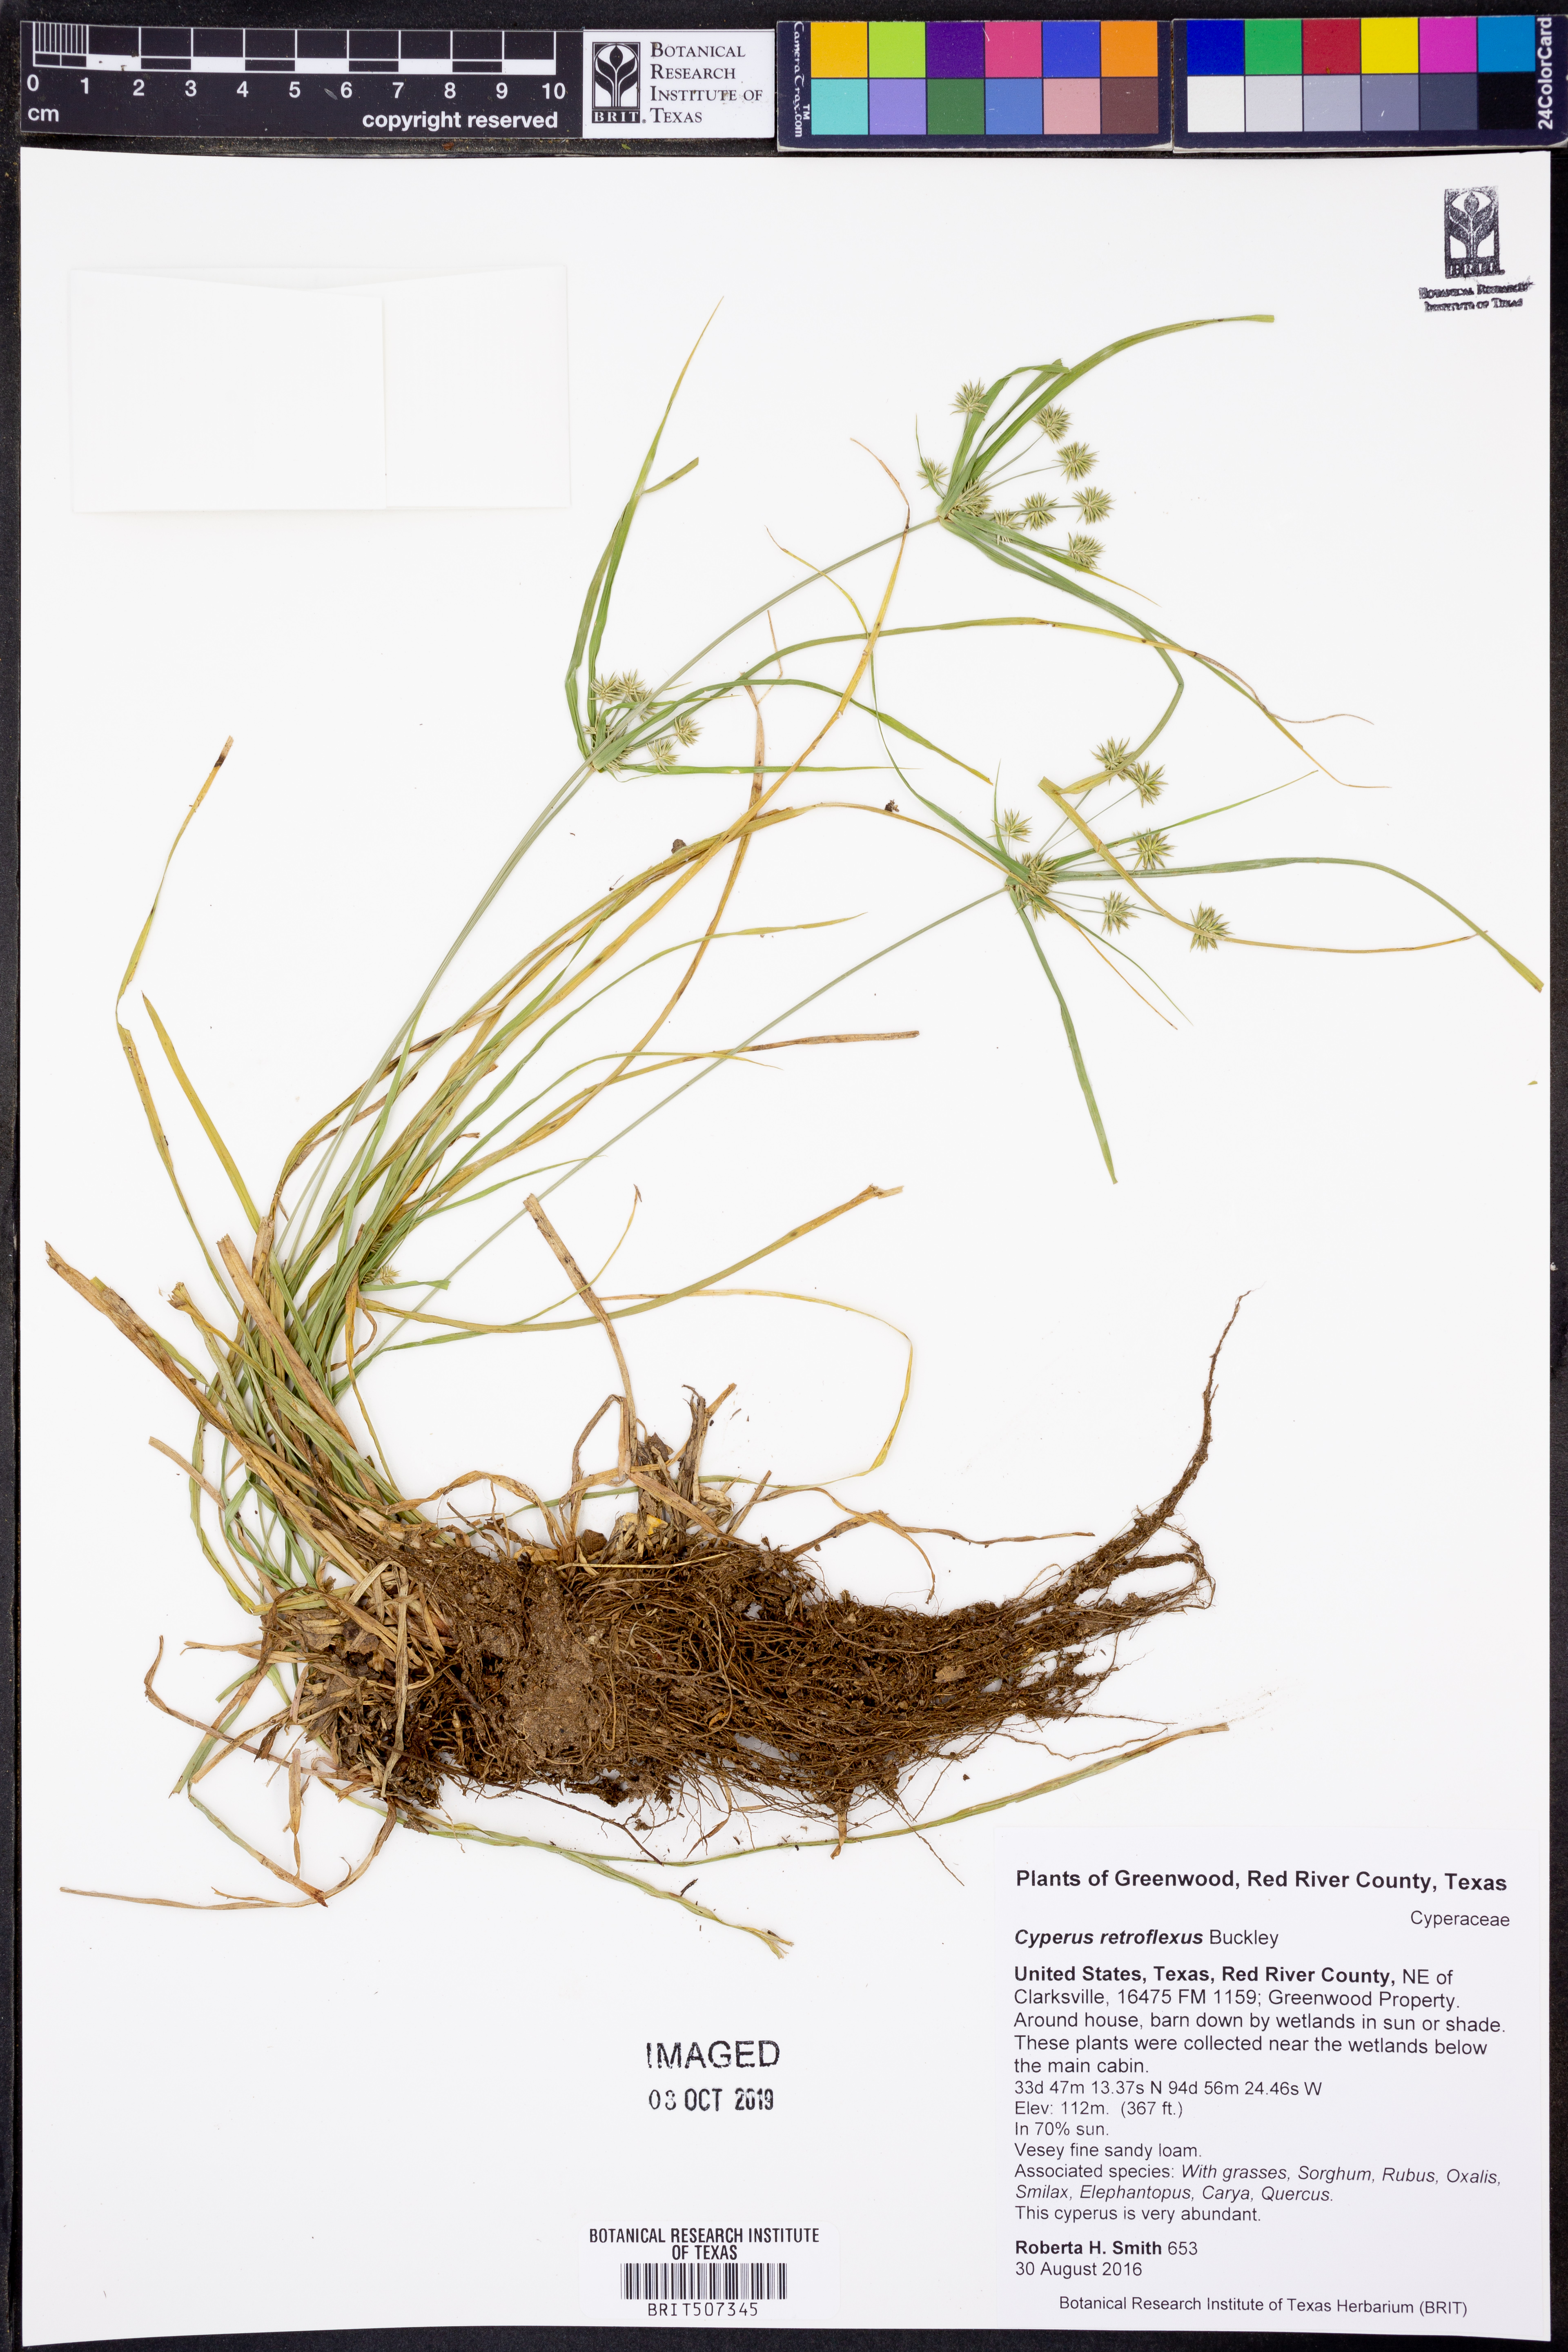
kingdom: Plantae
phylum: Tracheophyta
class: Liliopsida
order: Poales
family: Cyperaceae
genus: Cyperus
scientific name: Cyperus retroflexus
